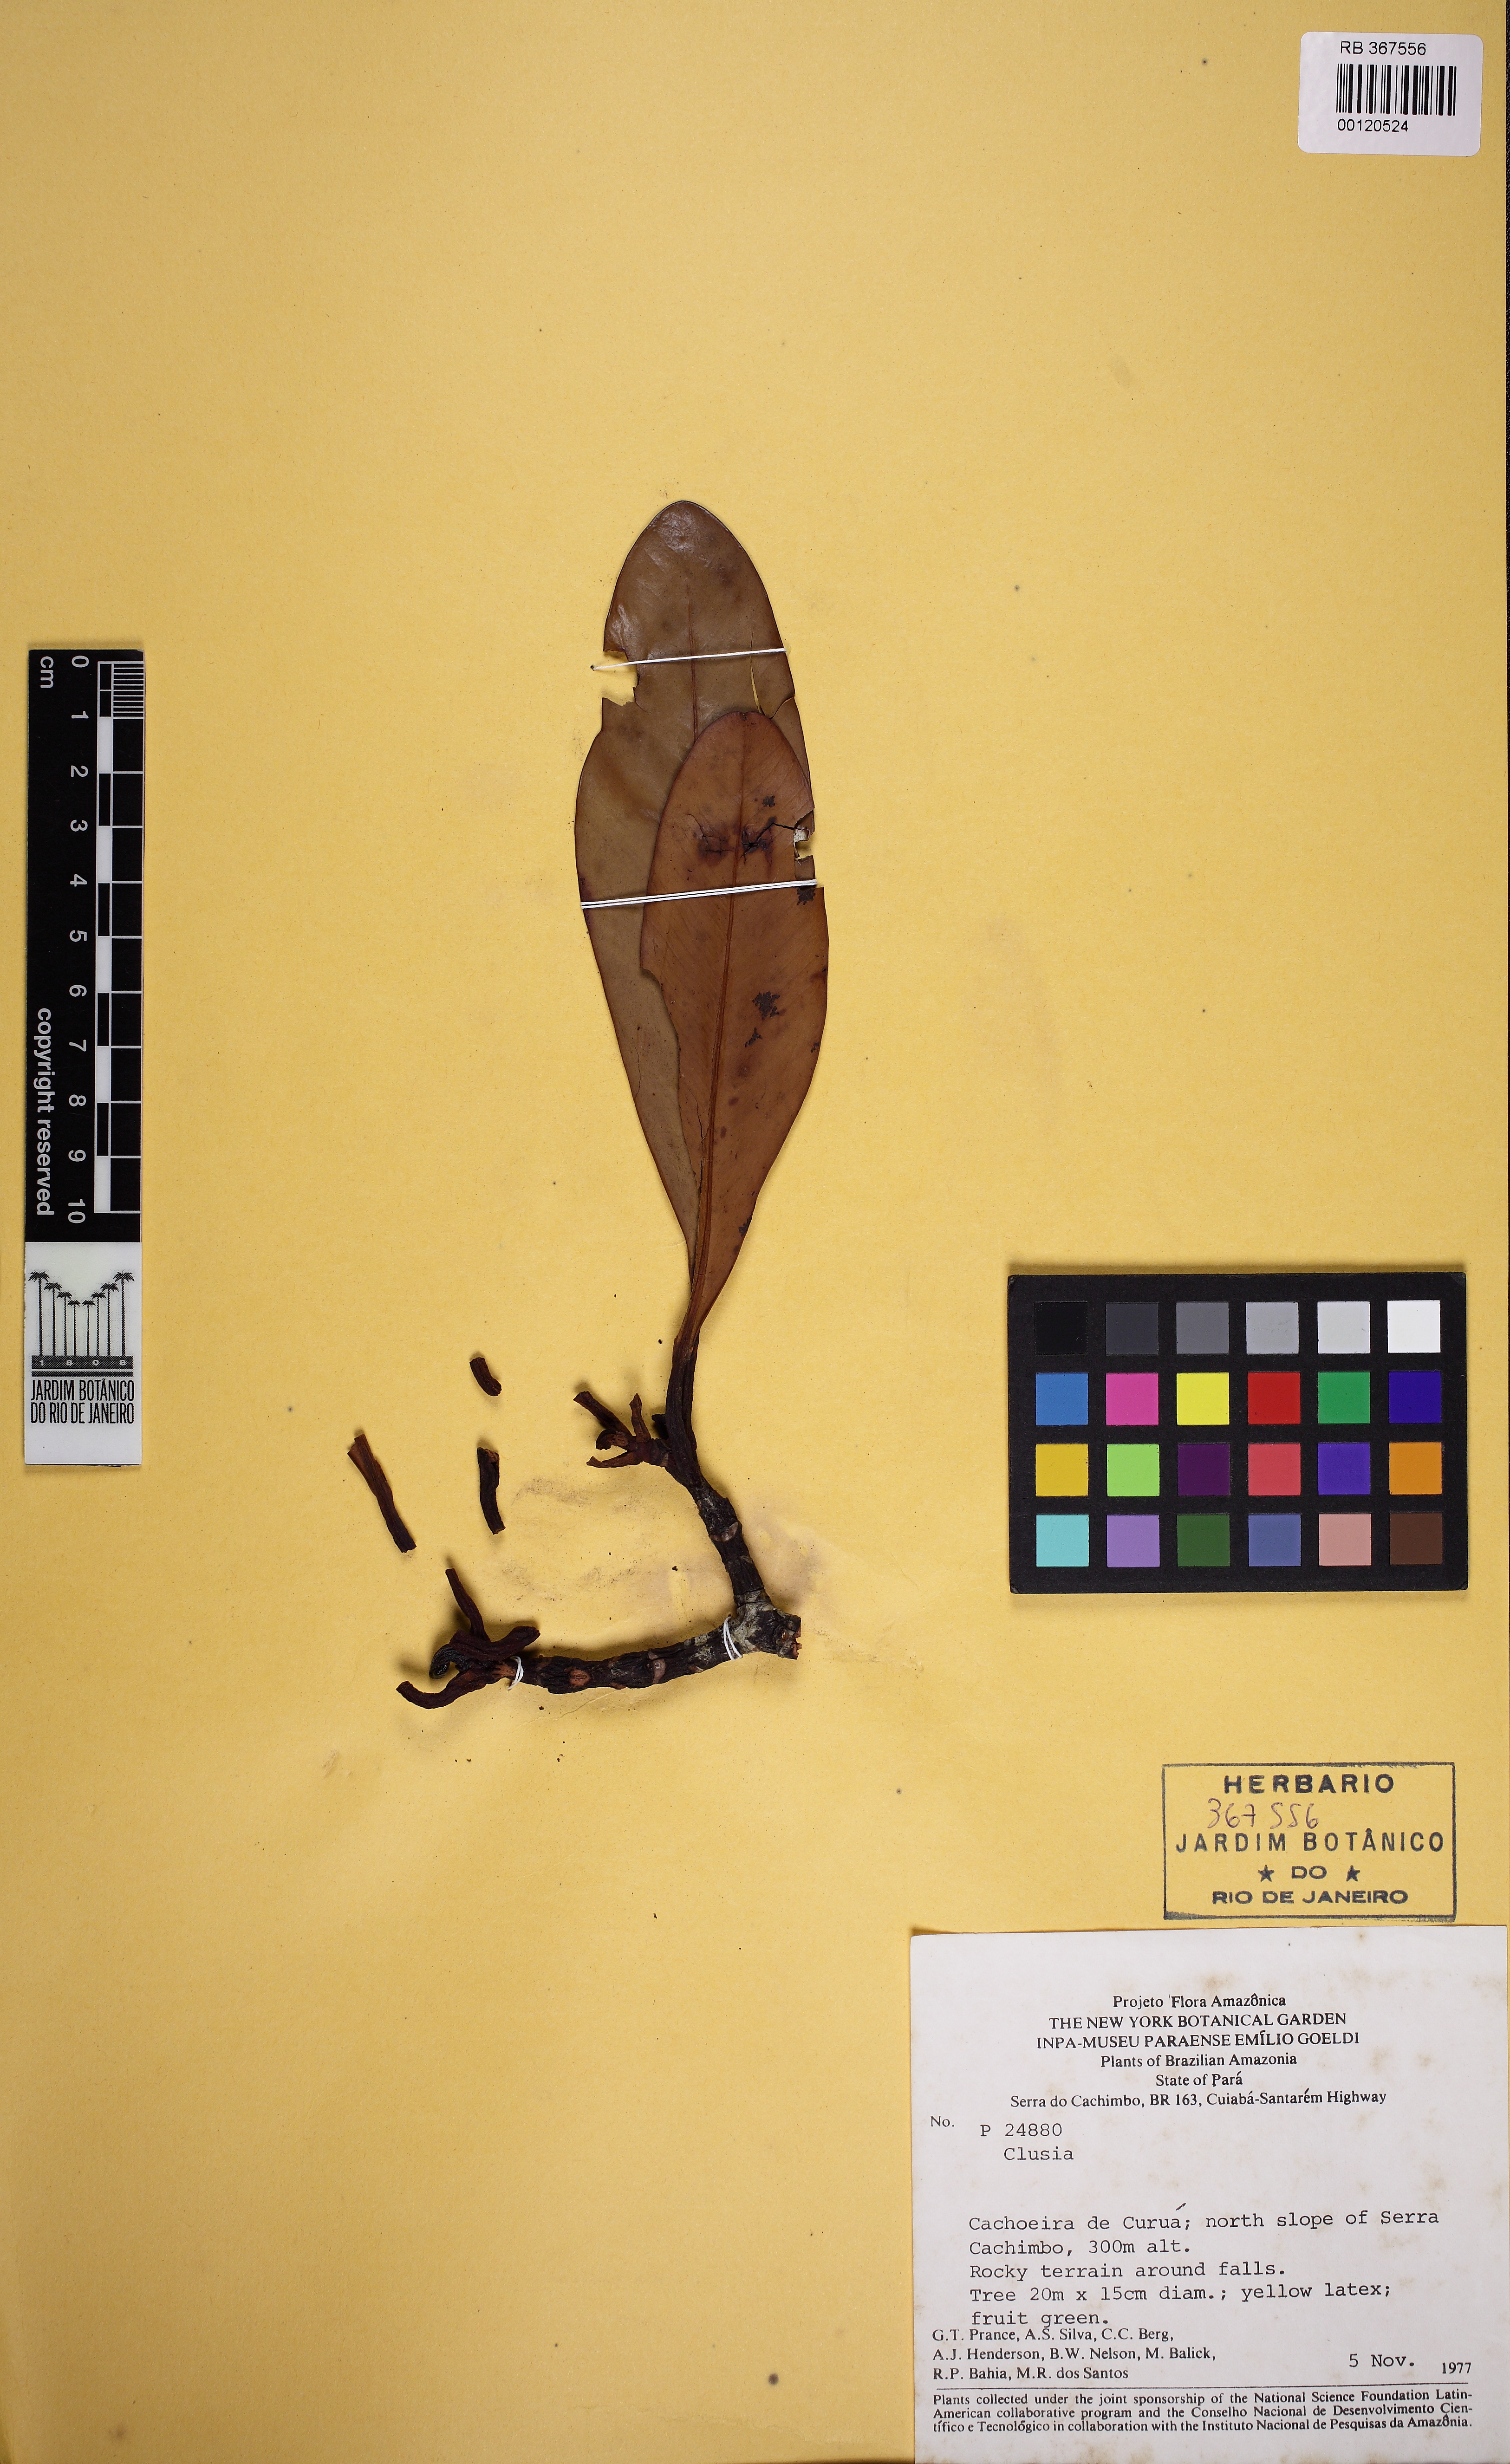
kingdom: Plantae
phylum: Tracheophyta
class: Magnoliopsida
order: Malpighiales
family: Clusiaceae
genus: Clusia
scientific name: Clusia
